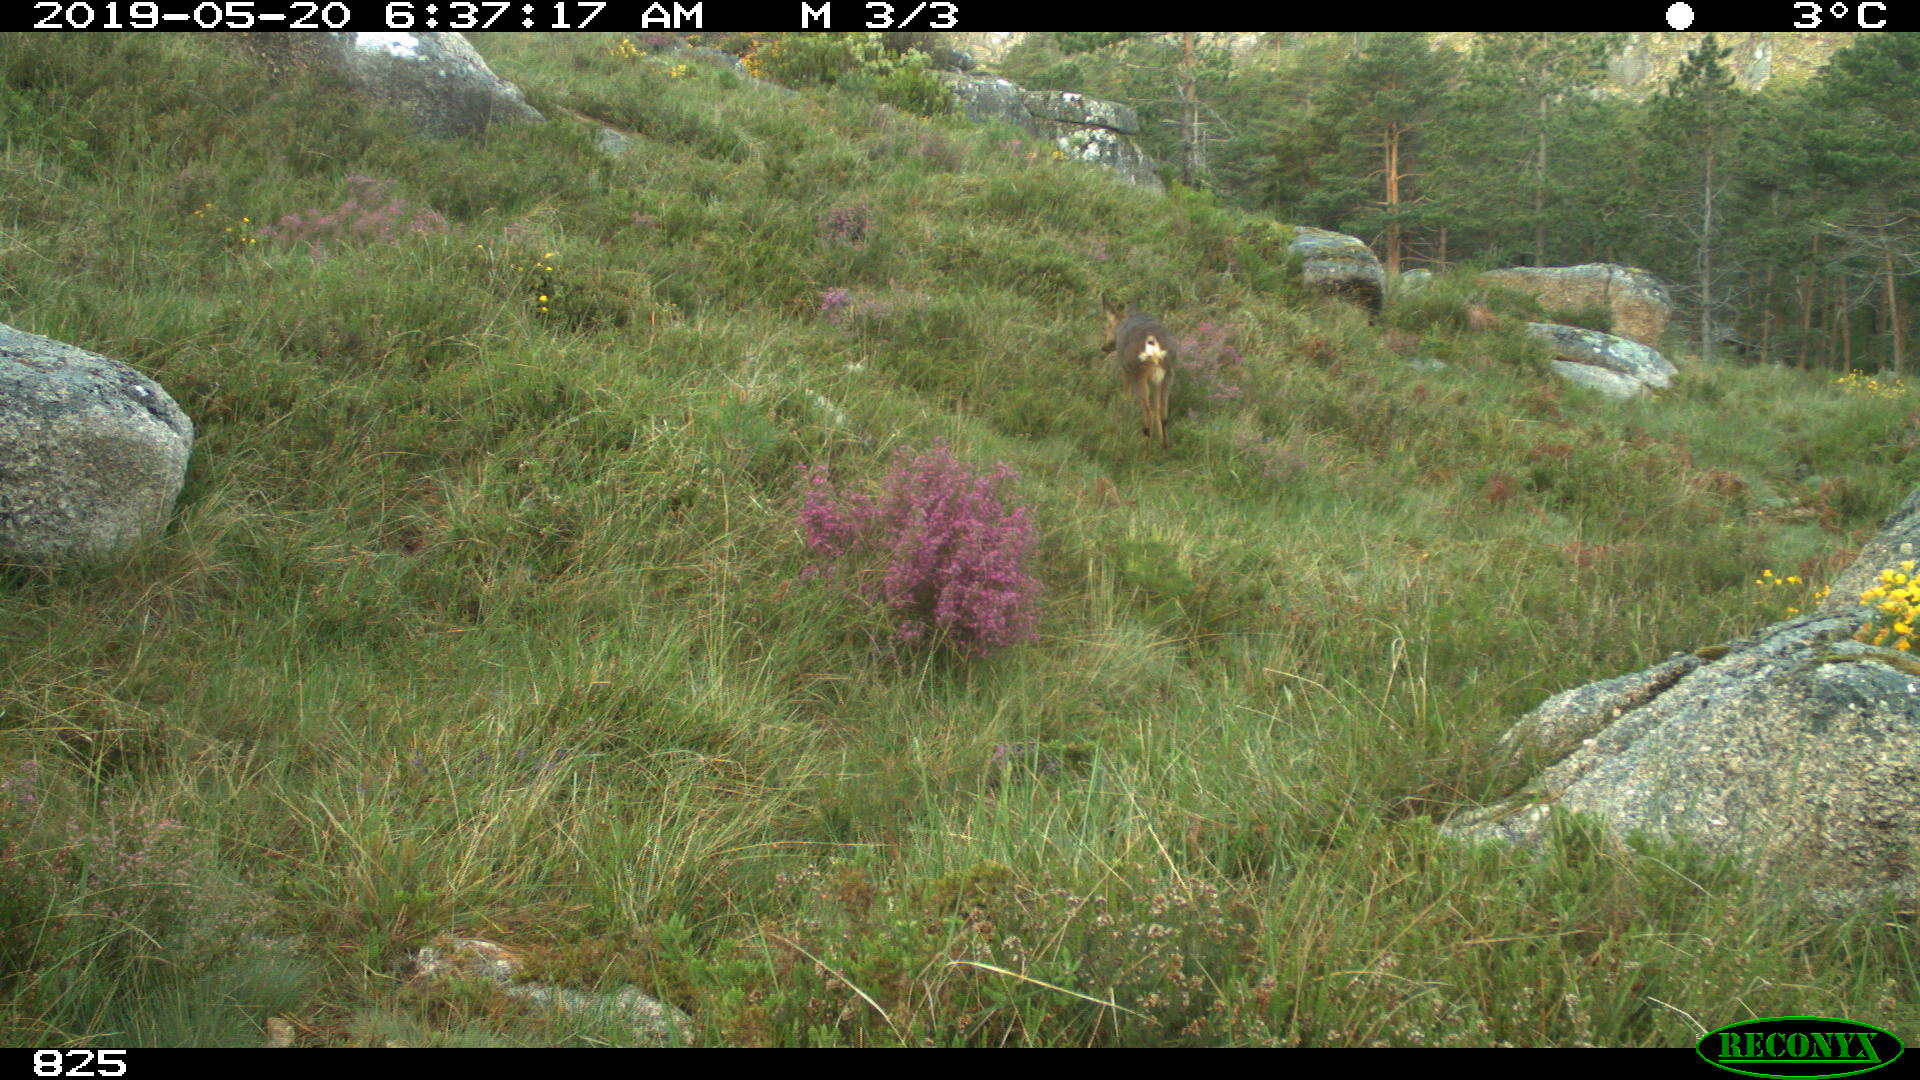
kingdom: Animalia
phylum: Chordata
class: Mammalia
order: Artiodactyla
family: Cervidae
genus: Capreolus
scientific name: Capreolus capreolus
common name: Western roe deer
